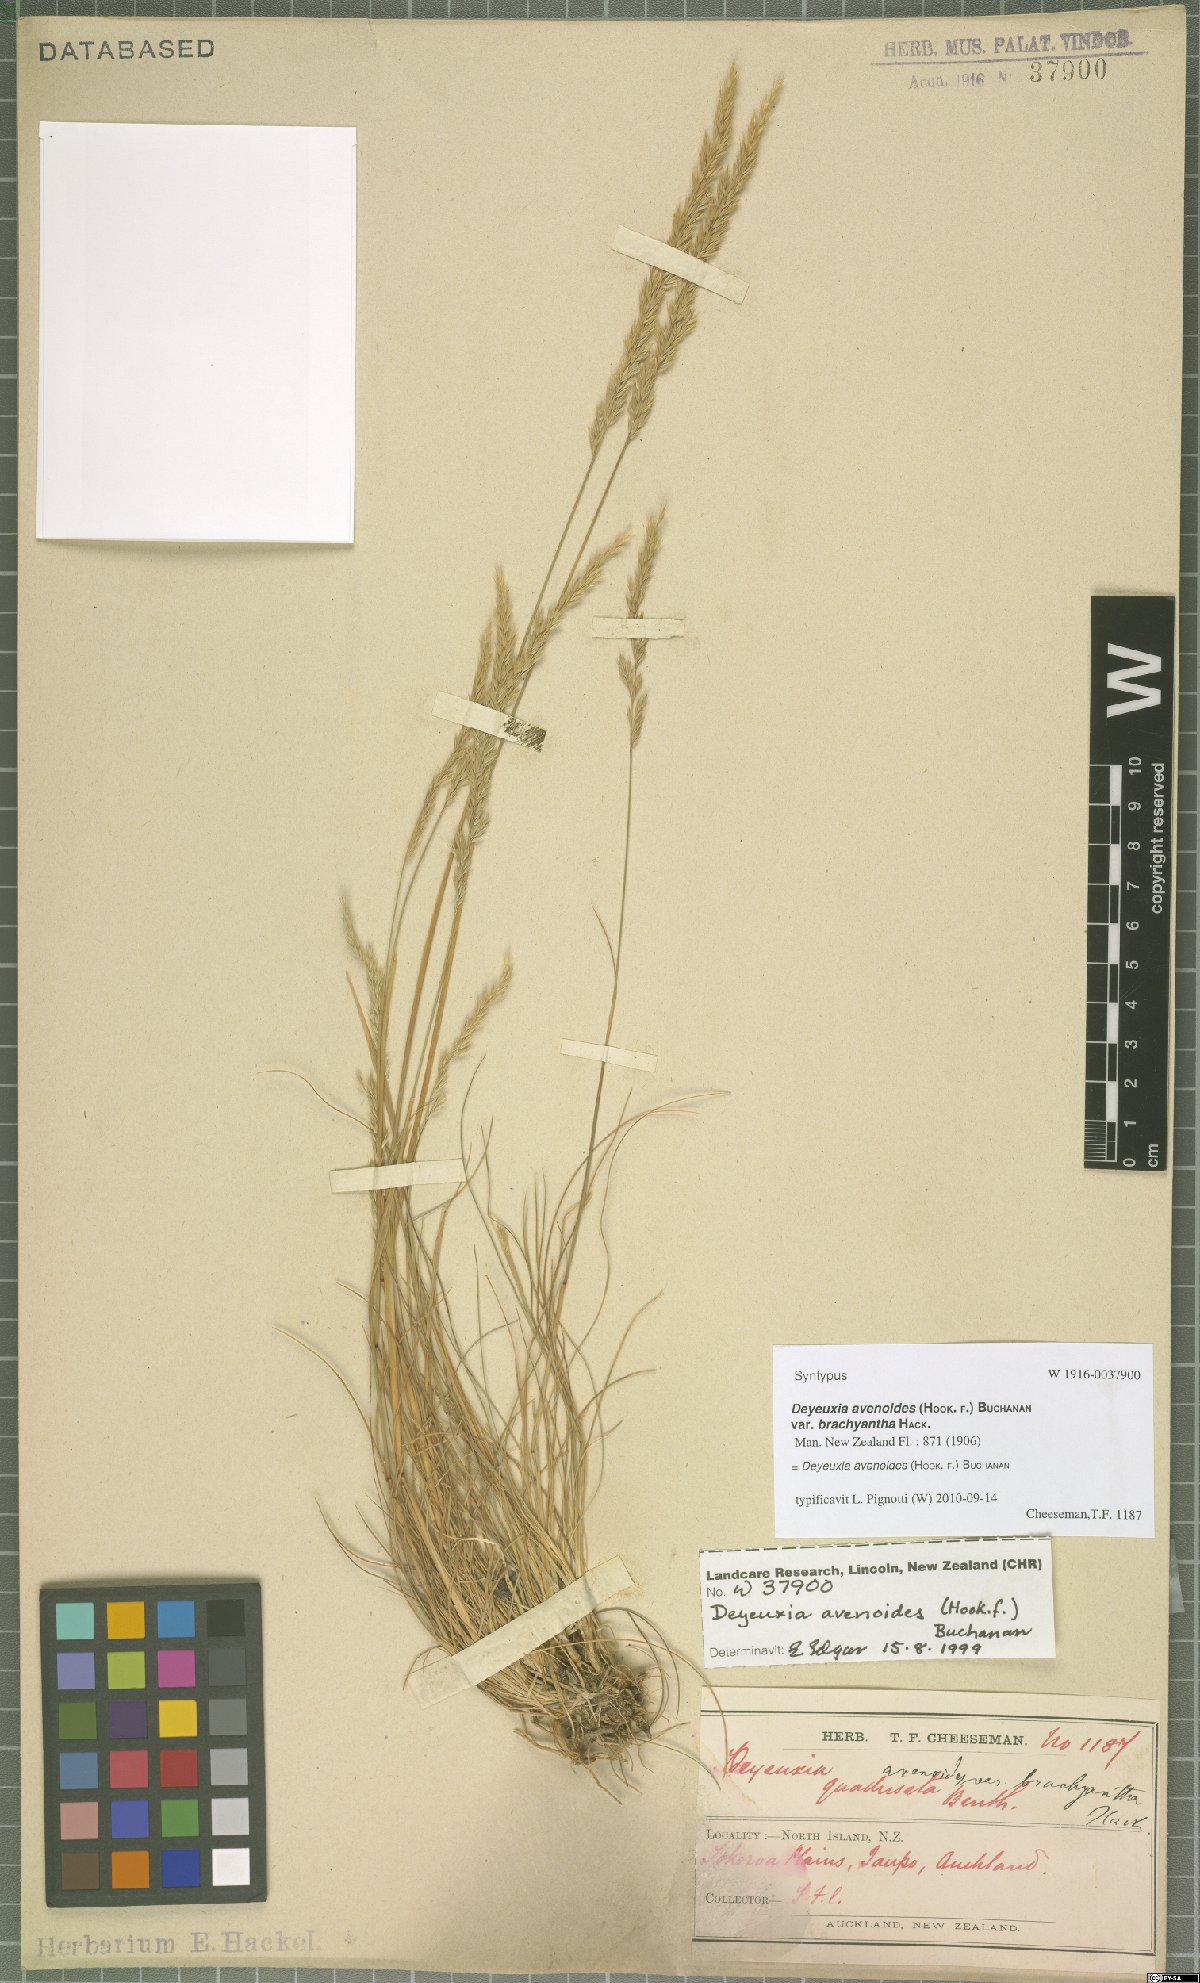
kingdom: Plantae
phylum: Tracheophyta
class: Liliopsida
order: Poales
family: Poaceae
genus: Calamagrostis
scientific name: Calamagrostis avenoides
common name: Mountain oat grass
